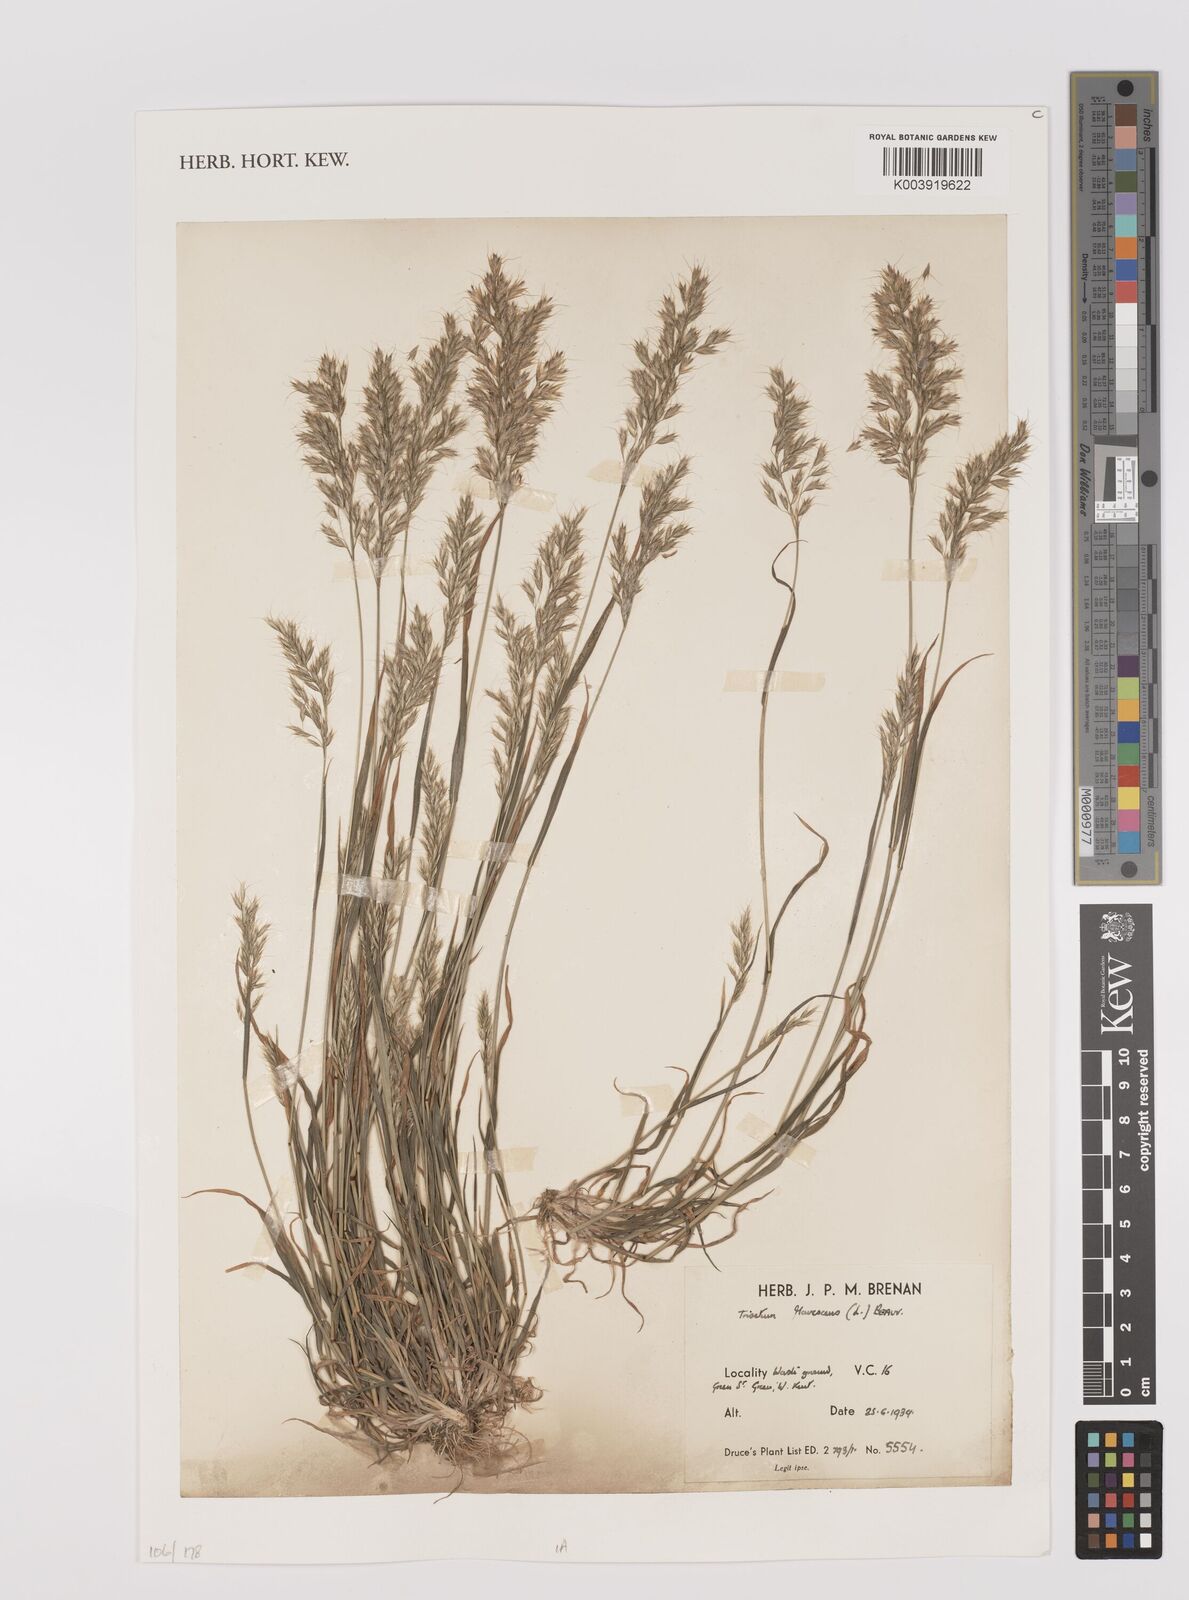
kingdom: Plantae
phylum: Tracheophyta
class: Liliopsida
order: Poales
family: Poaceae
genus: Trisetum
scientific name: Trisetum flavescens
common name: Yellow oat-grass
